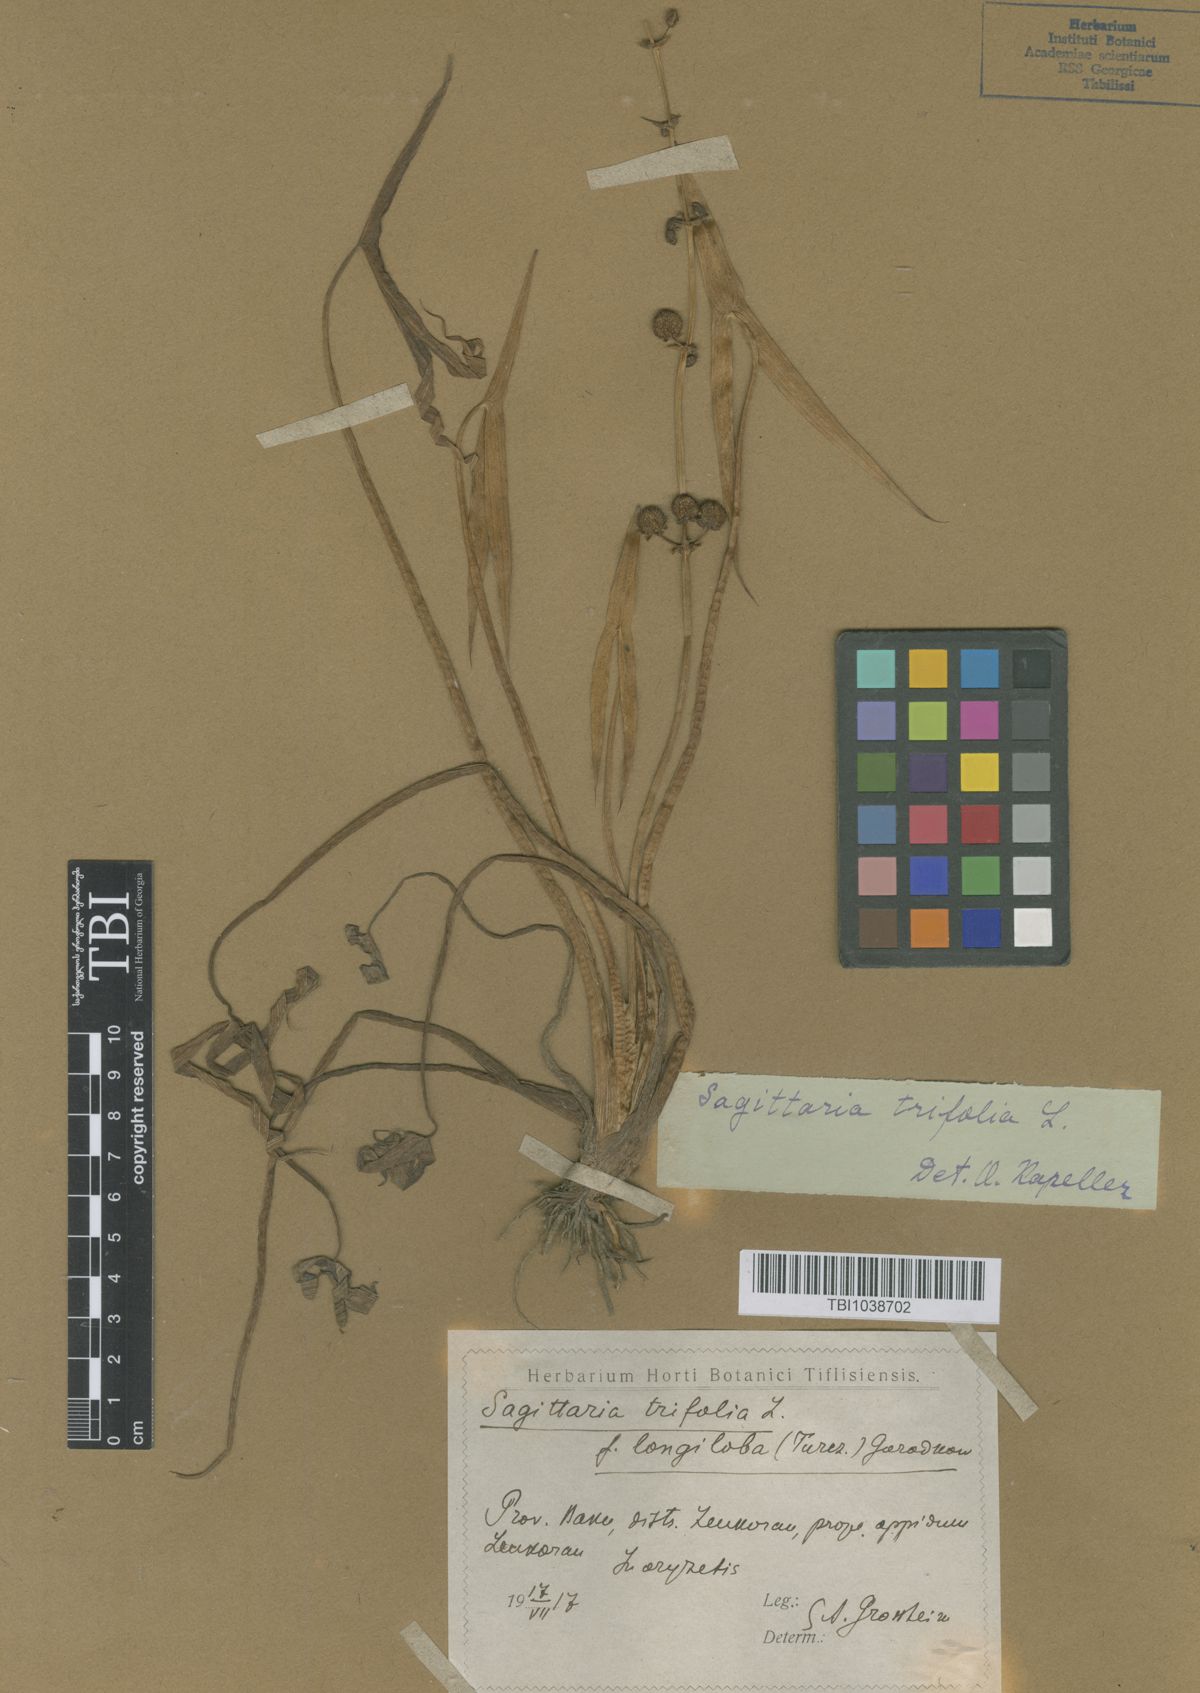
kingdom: Plantae
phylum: Tracheophyta
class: Liliopsida
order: Alismatales
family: Alismataceae
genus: Sagittaria
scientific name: Sagittaria trifolia
